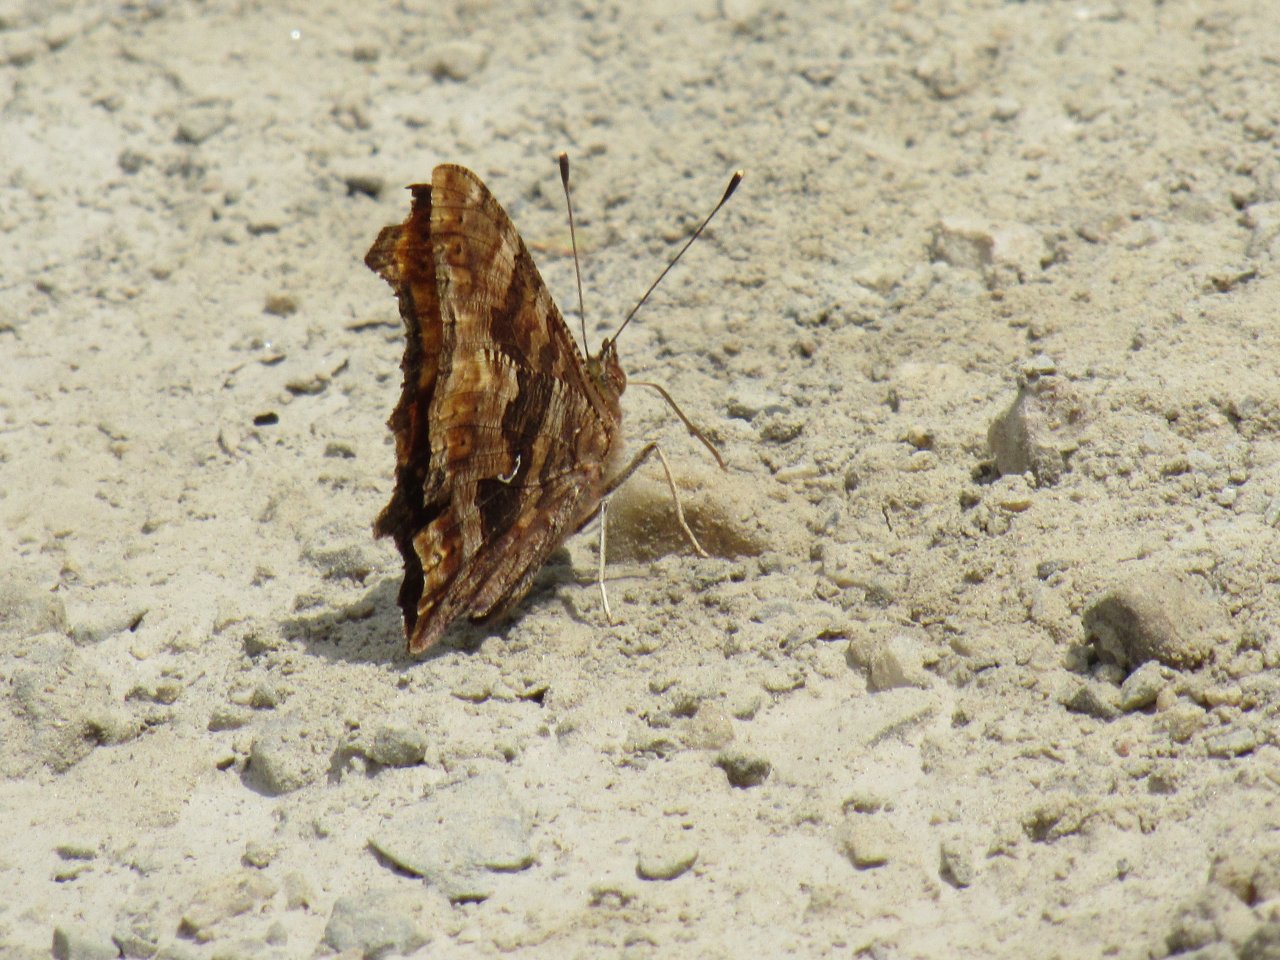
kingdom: Animalia
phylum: Arthropoda
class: Insecta
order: Lepidoptera
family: Nymphalidae
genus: Polygonia
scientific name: Polygonia comma
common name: Eastern Comma
